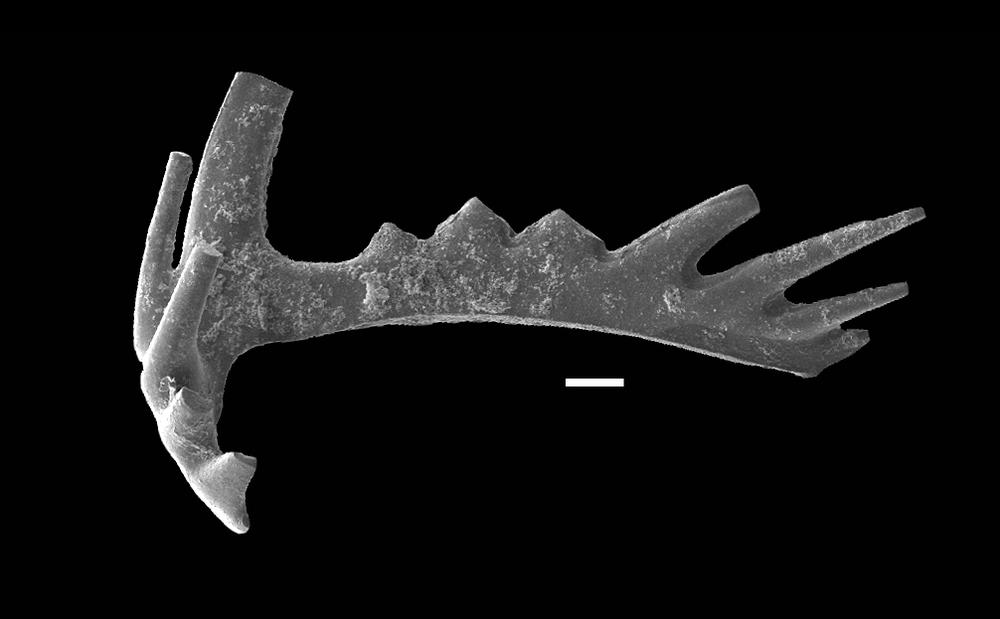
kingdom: Animalia
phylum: Chordata
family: Hibbardellidae
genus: Oulodus
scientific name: Oulodus
